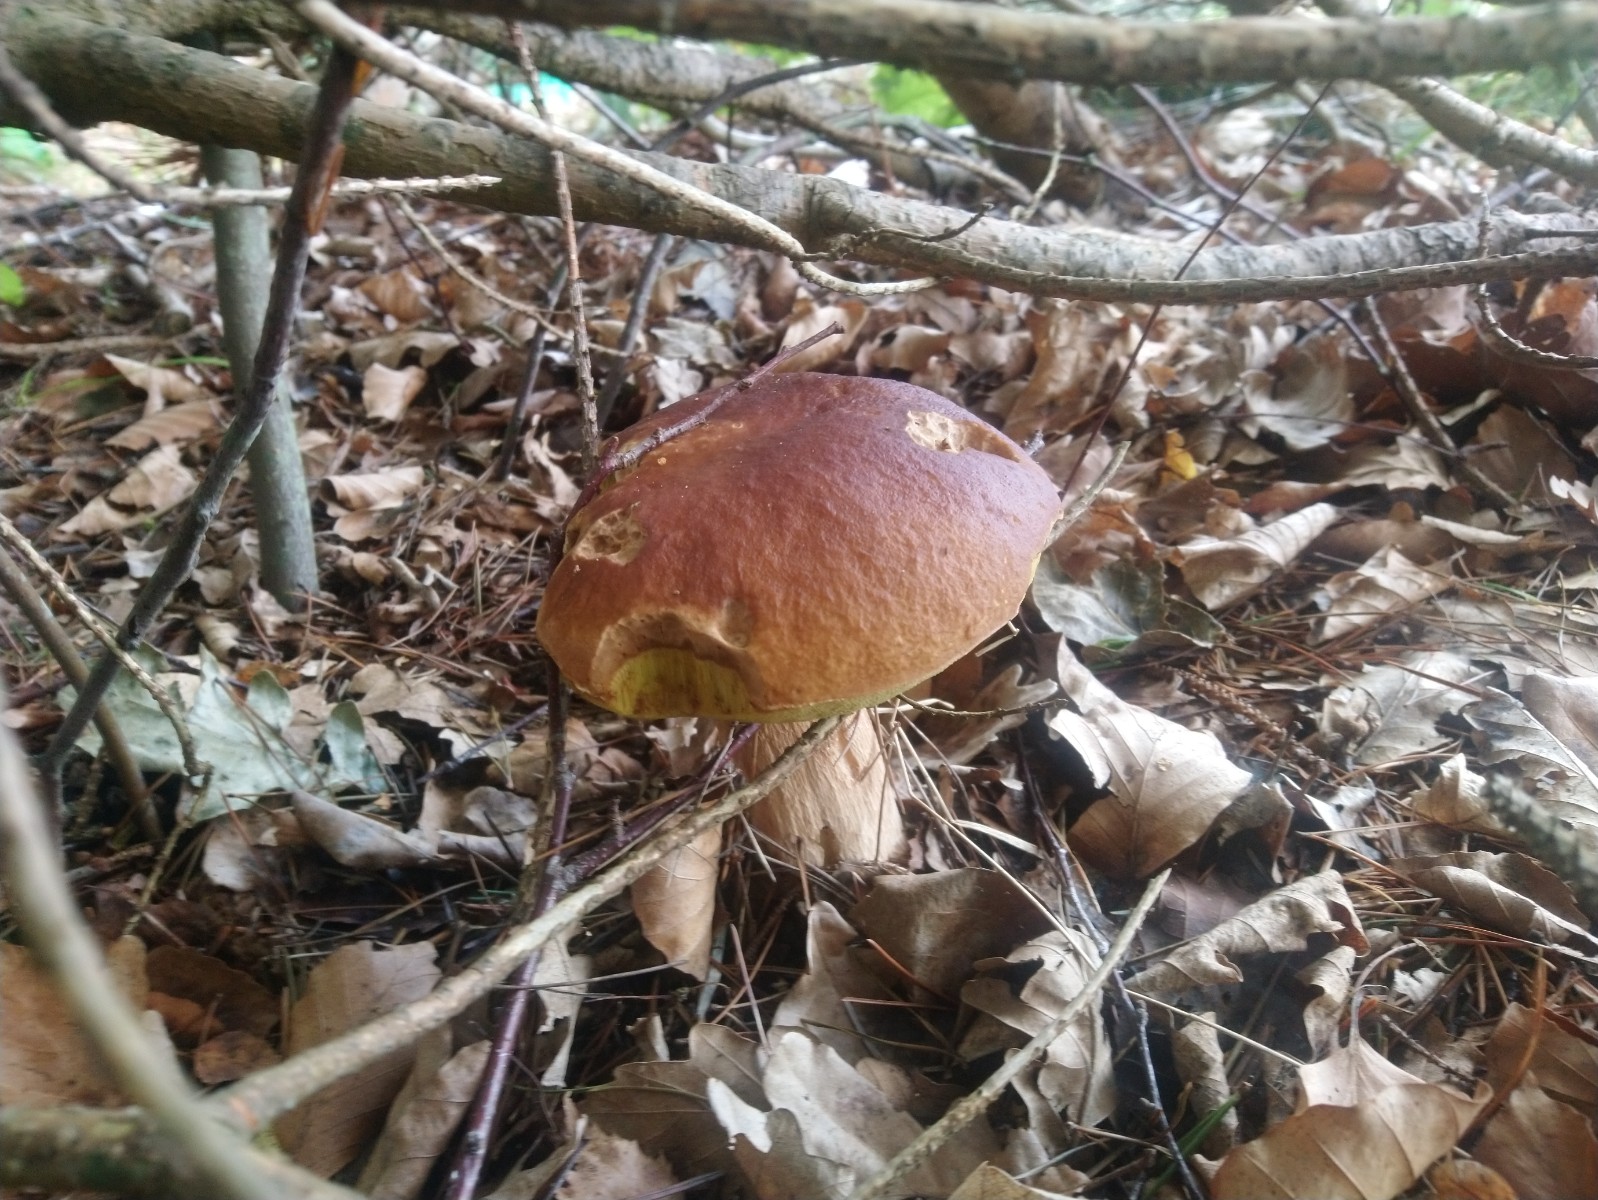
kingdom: Fungi
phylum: Basidiomycota
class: Agaricomycetes
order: Boletales
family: Boletaceae
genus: Boletus
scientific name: Boletus edulis
